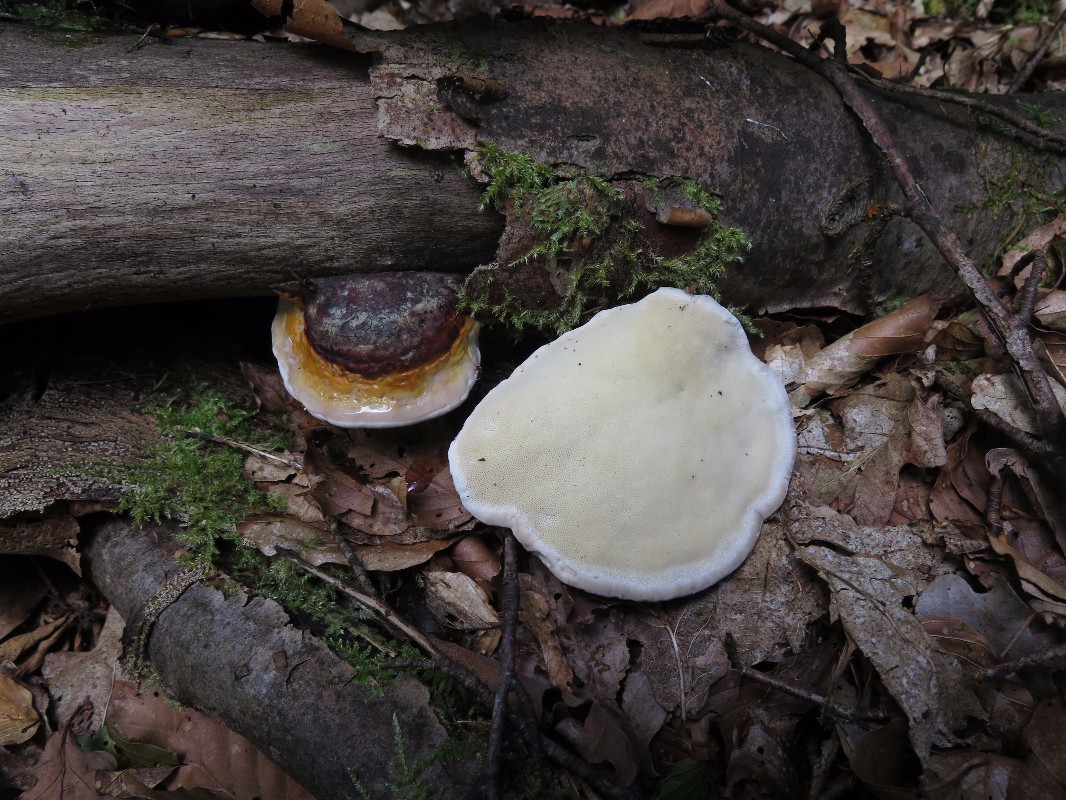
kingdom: Fungi
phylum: Basidiomycota
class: Agaricomycetes
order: Polyporales
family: Fomitopsidaceae
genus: Fomitopsis
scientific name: Fomitopsis pinicola
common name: randbæltet hovporesvamp
